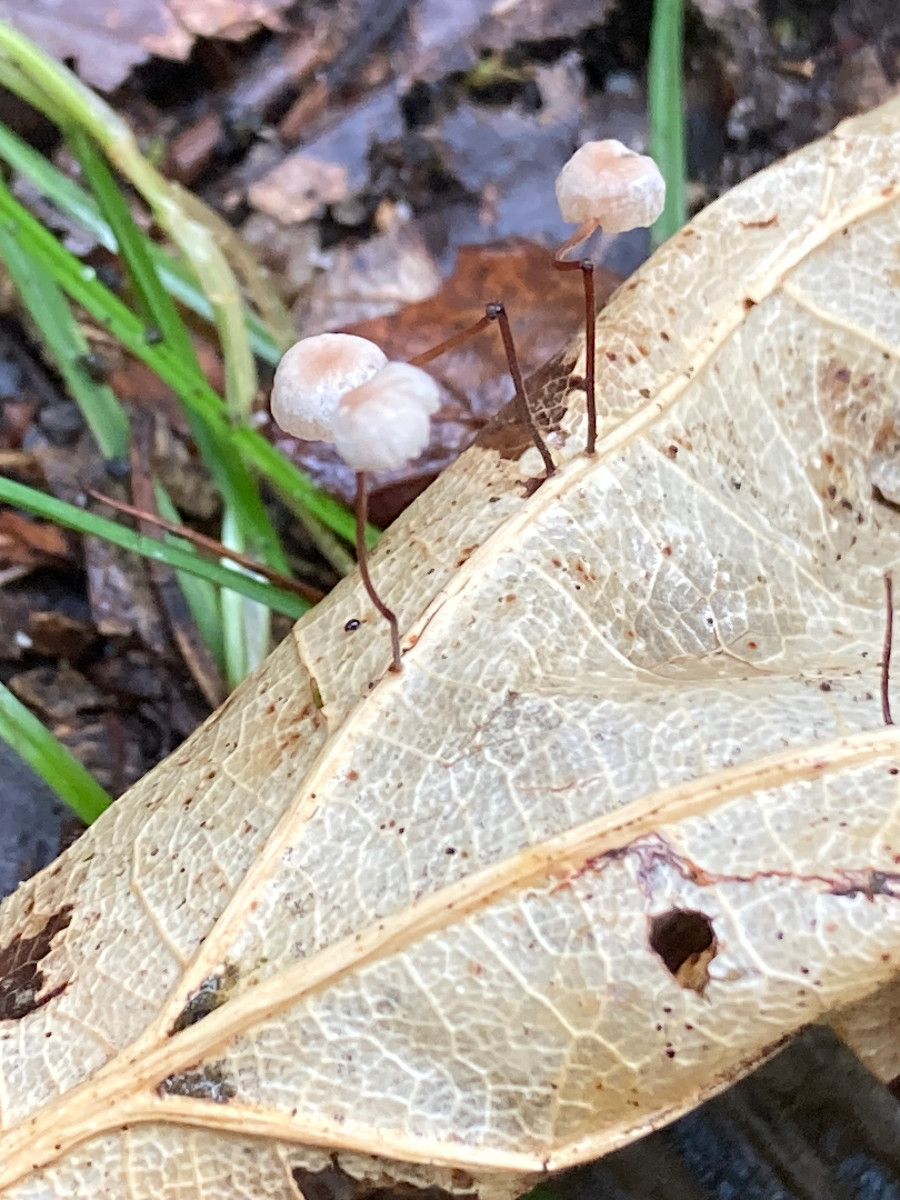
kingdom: Fungi
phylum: Basidiomycota
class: Agaricomycetes
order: Agaricales
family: Omphalotaceae
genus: Collybiopsis
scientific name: Collybiopsis quercophila
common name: egeblads-bruskhat
